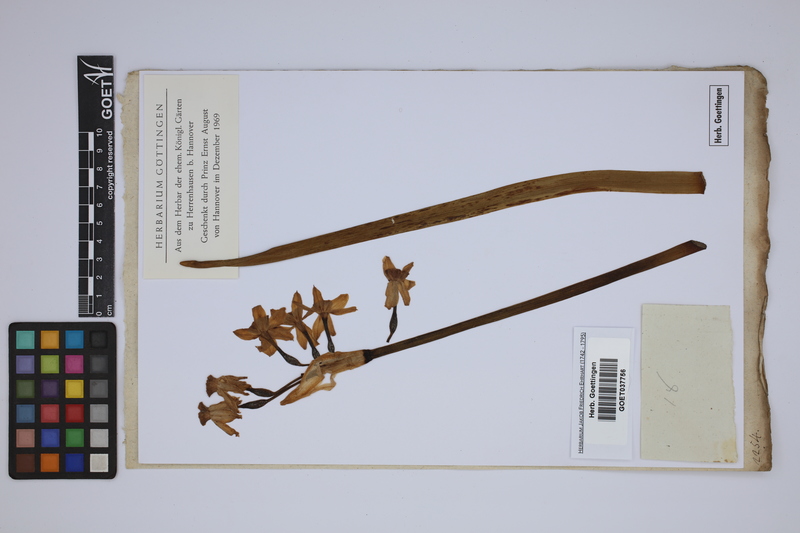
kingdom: Plantae
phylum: Tracheophyta
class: Liliopsida
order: Asparagales
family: Amaryllidaceae
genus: Narcissus
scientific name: Narcissus tazetta
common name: Bunch-flowered daffodil
